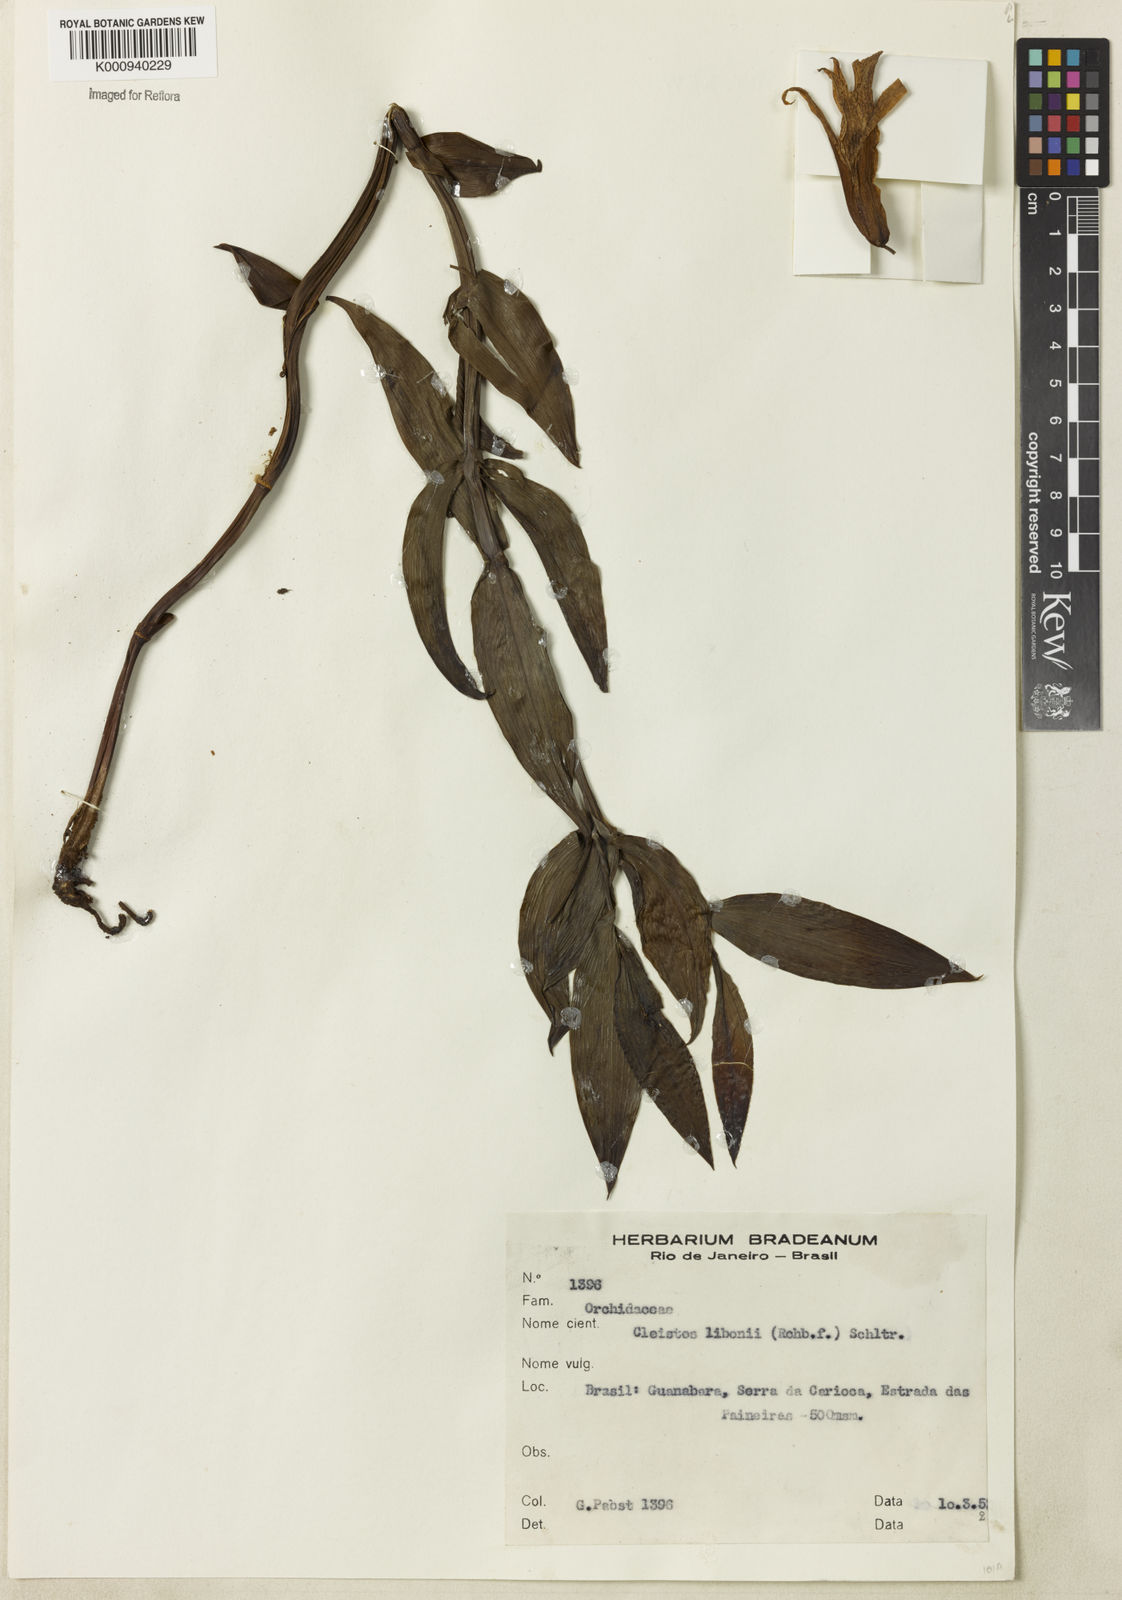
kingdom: Plantae
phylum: Tracheophyta
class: Liliopsida
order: Asparagales
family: Orchidaceae
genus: Cleistes
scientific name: Cleistes libonii
